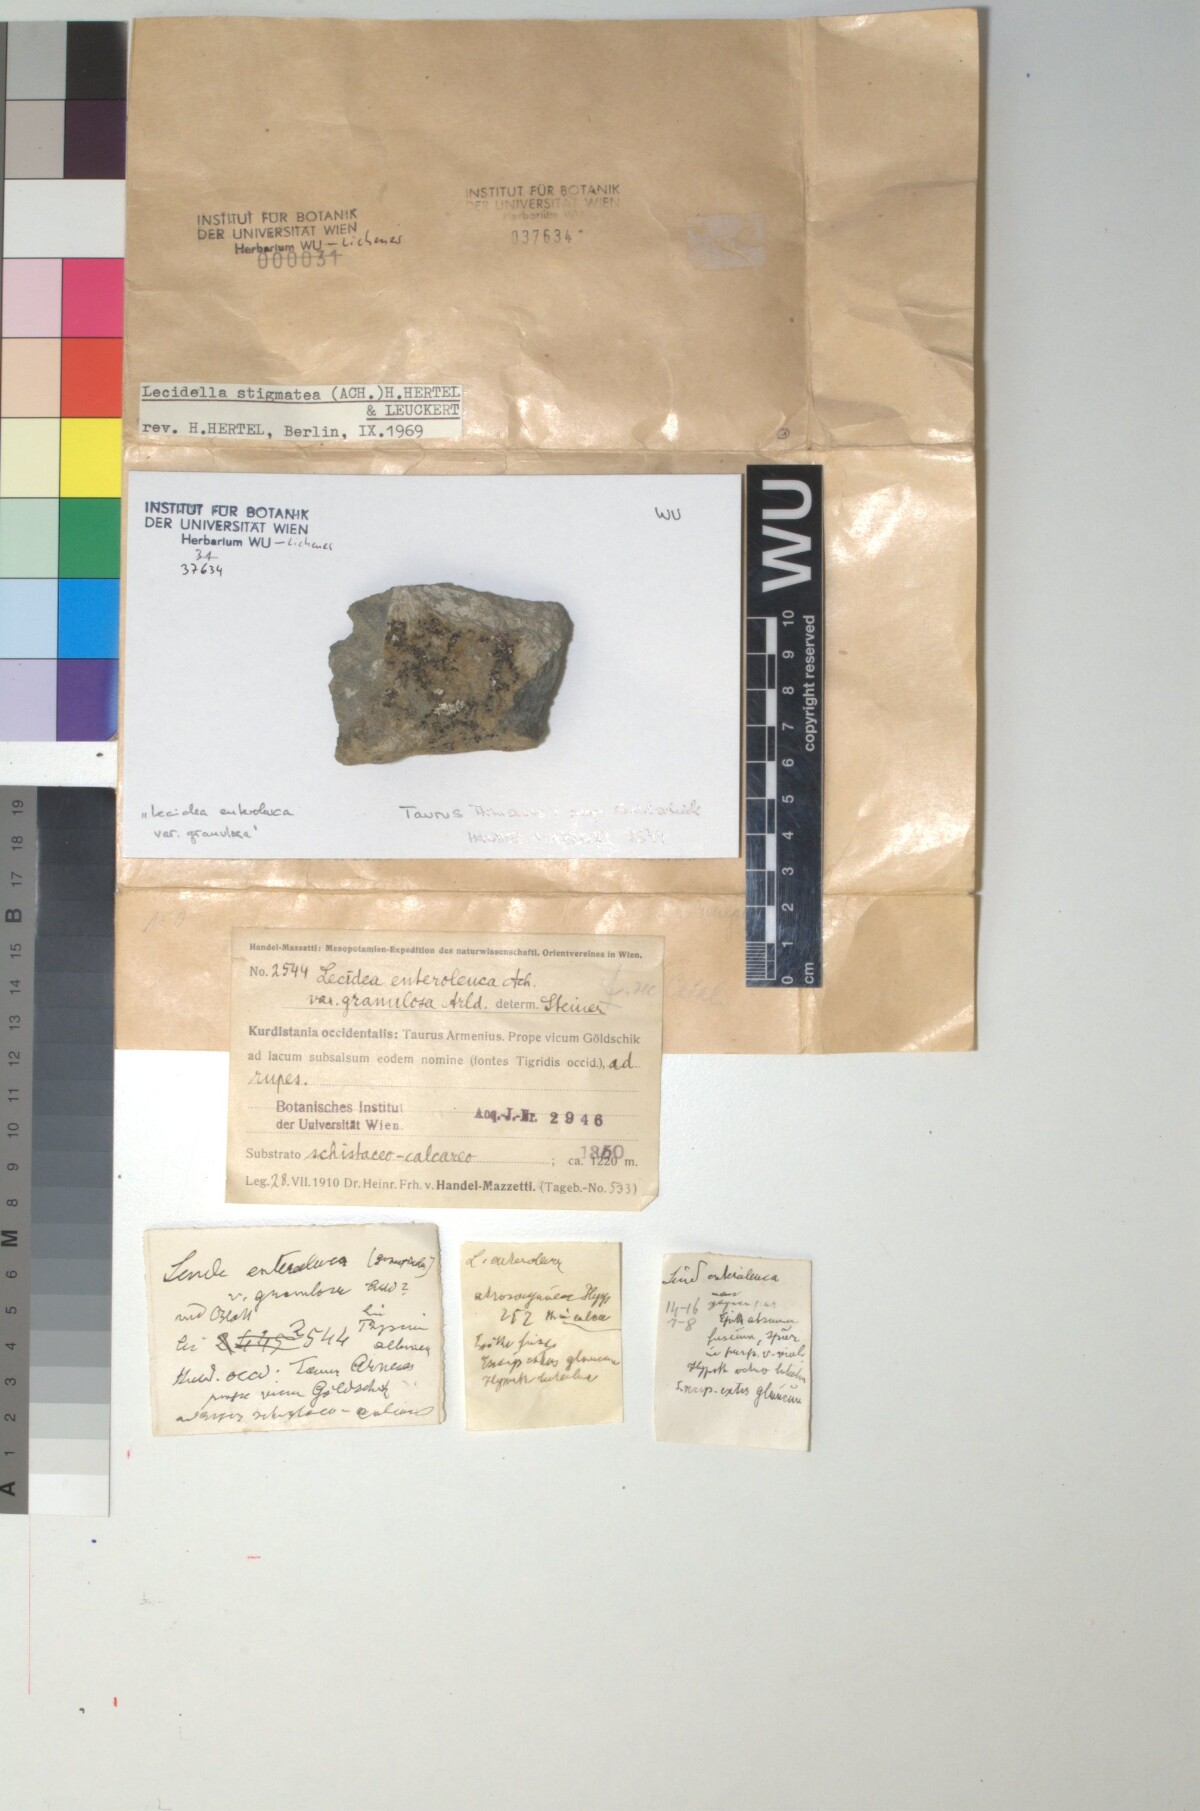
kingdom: Fungi
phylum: Ascomycota
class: Lecanoromycetes
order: Lecanorales
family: Lecanoraceae
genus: Lecidella
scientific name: Lecidella stigmatea
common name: Limestone disc lichen
